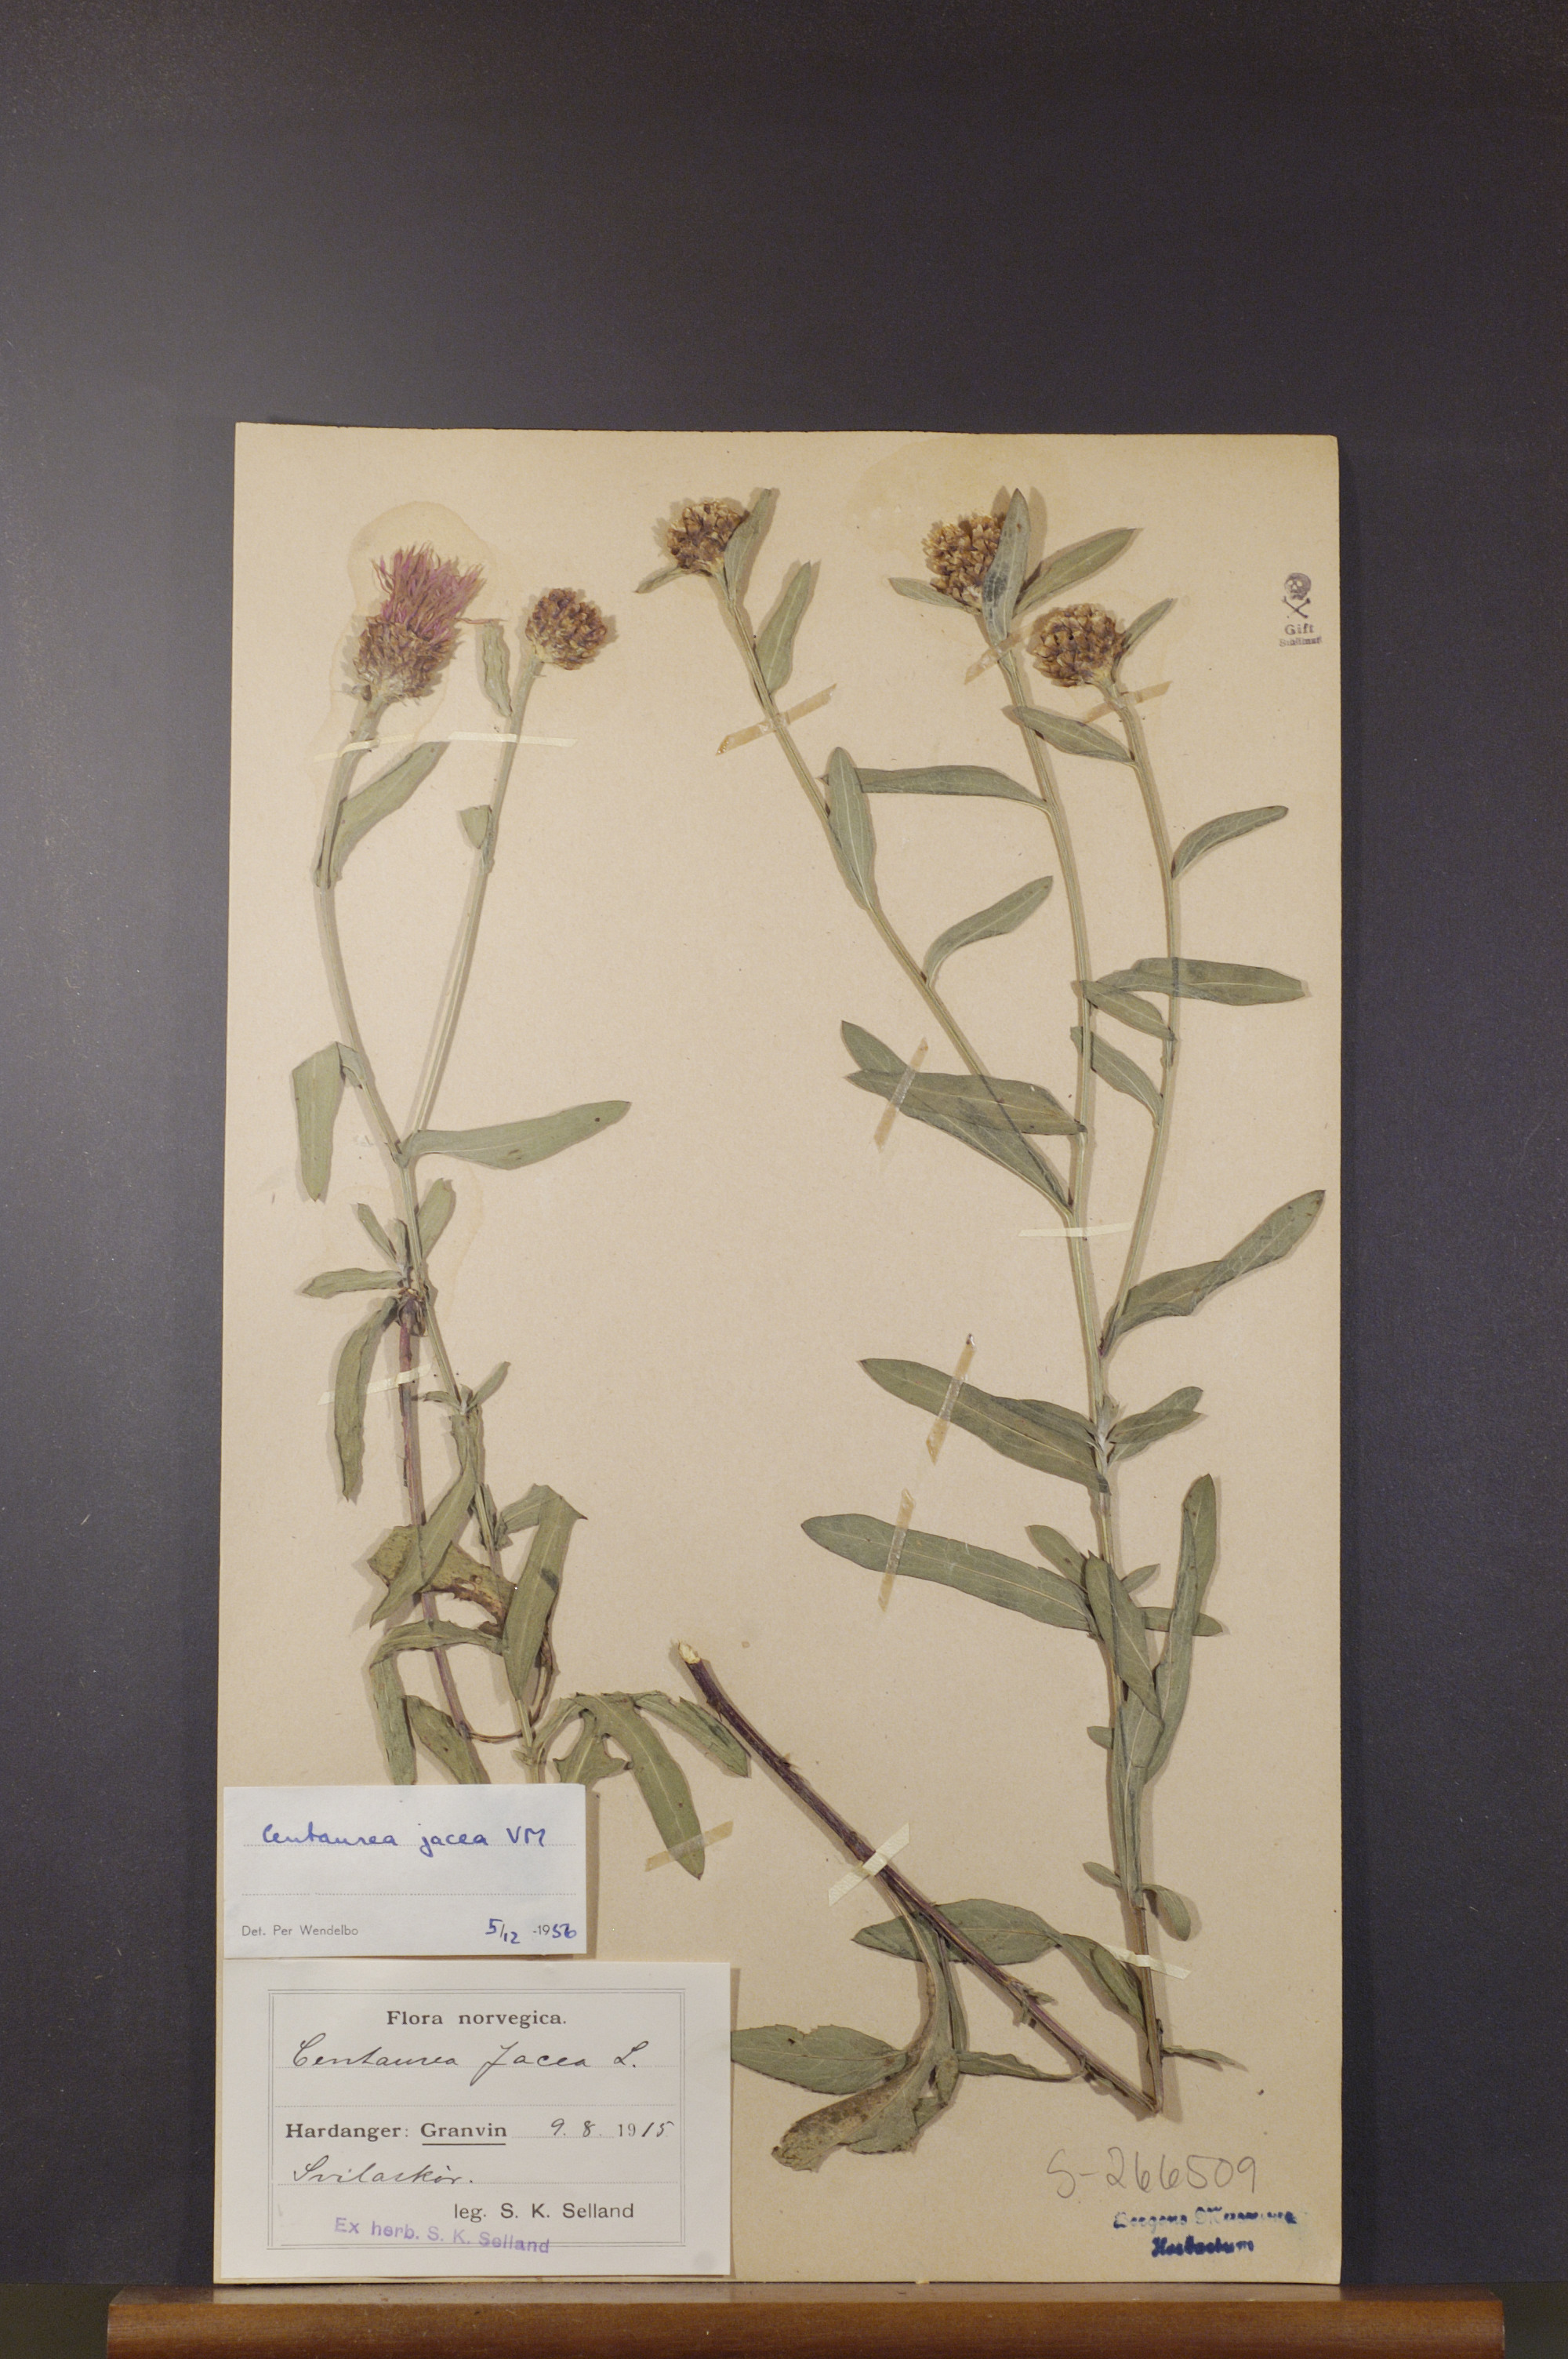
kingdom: Plantae
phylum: Tracheophyta
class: Magnoliopsida
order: Asterales
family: Asteraceae
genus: Centaurea
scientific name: Centaurea jacea
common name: Brown knapweed
